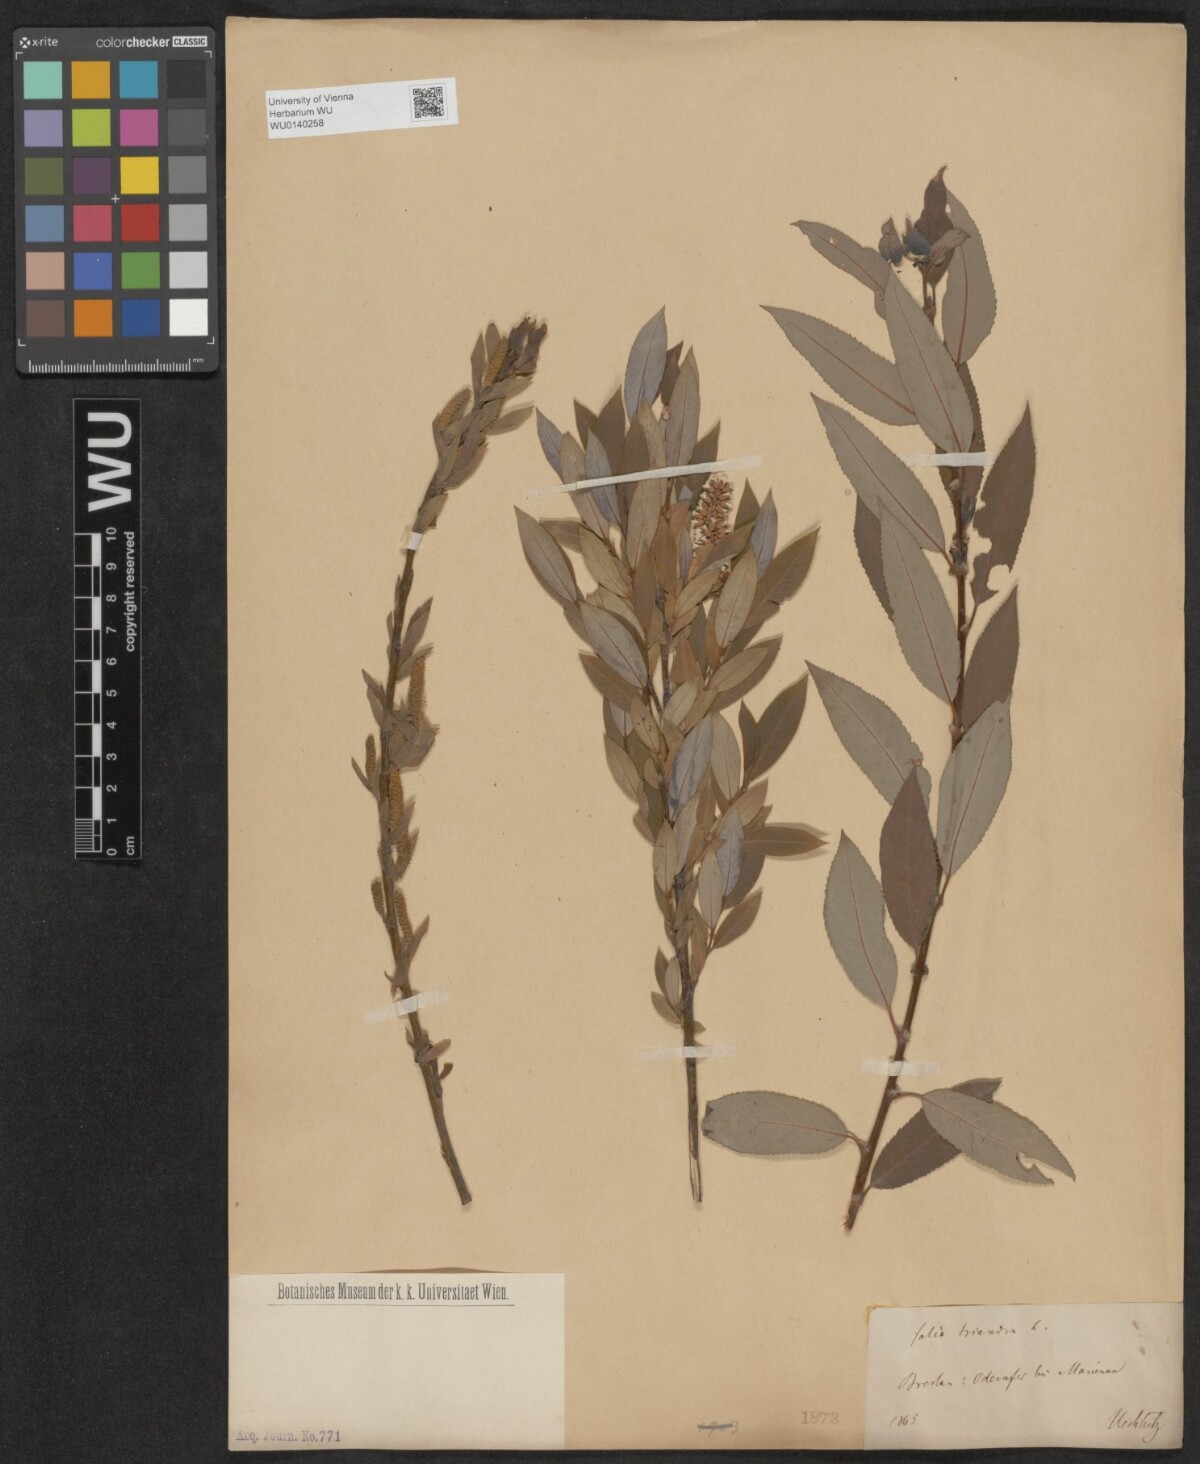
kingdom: Plantae
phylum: Tracheophyta
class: Magnoliopsida
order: Malpighiales
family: Salicaceae
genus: Salix
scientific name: Salix triandra
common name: Almond willow
